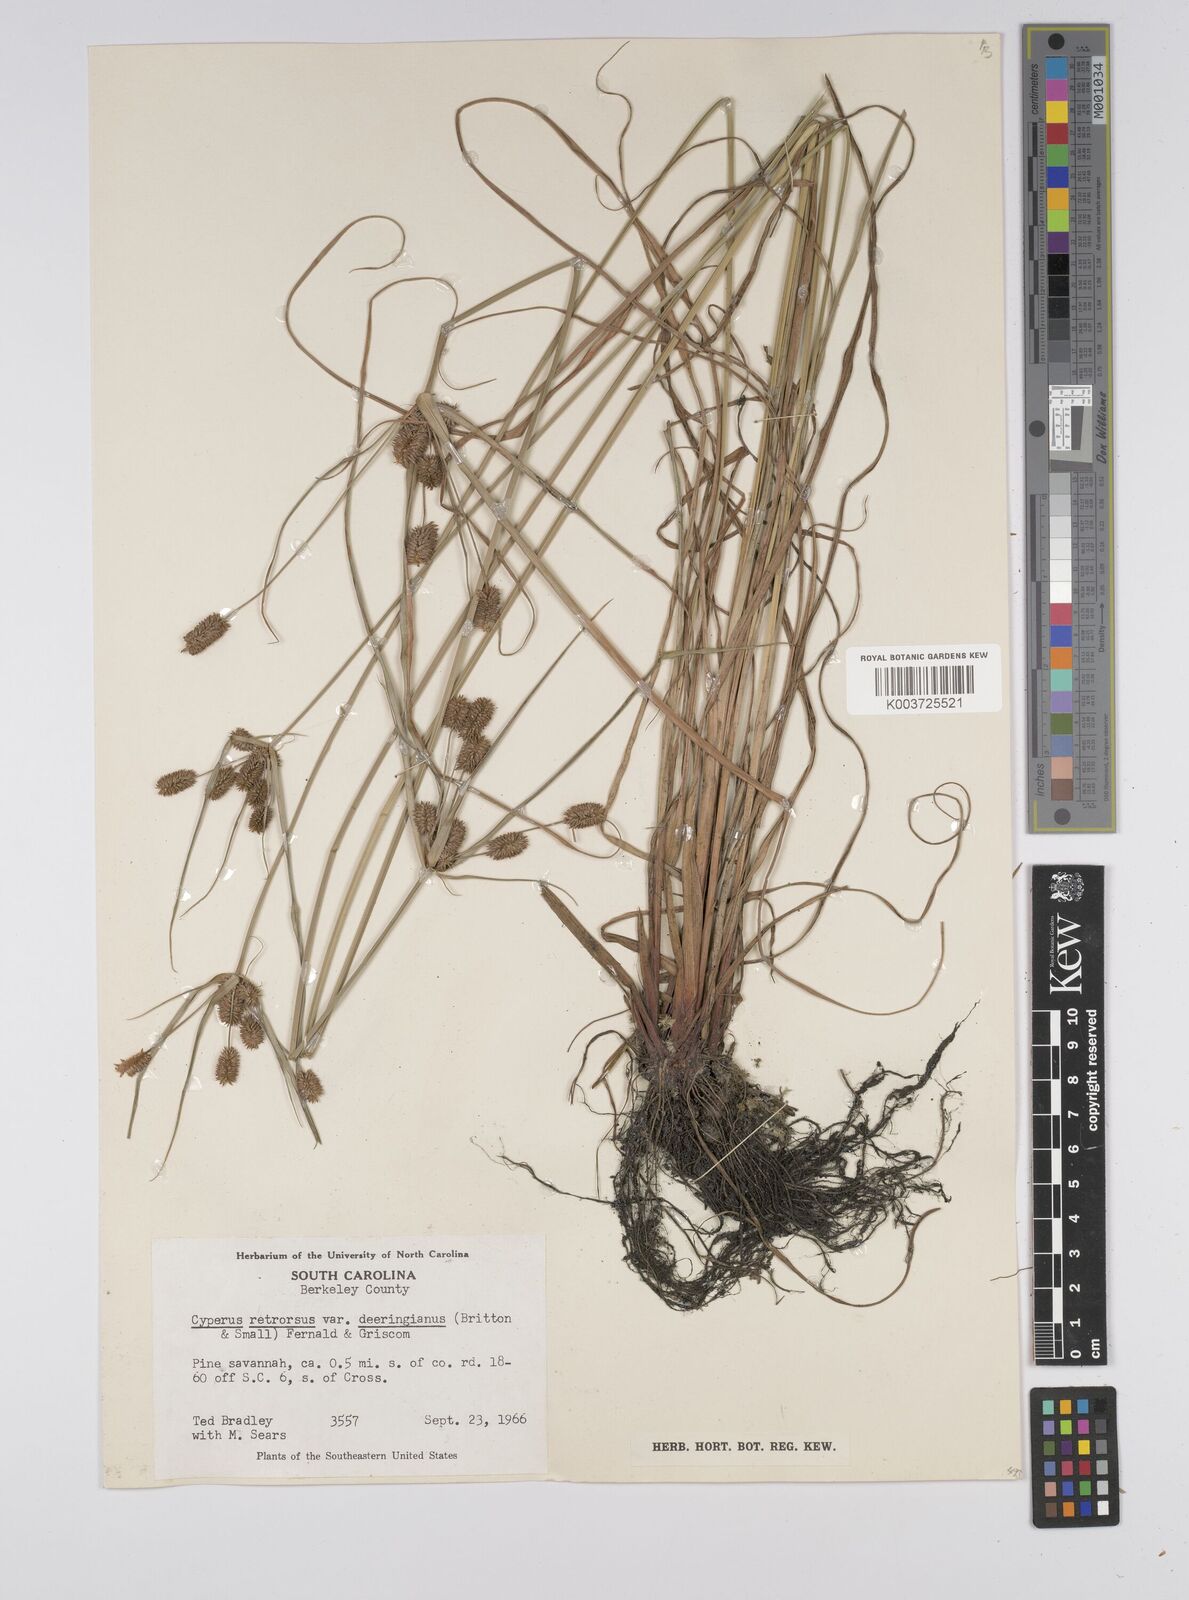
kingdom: Plantae
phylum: Tracheophyta
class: Liliopsida
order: Poales
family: Cyperaceae
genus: Cyperus
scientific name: Cyperus ovatus
